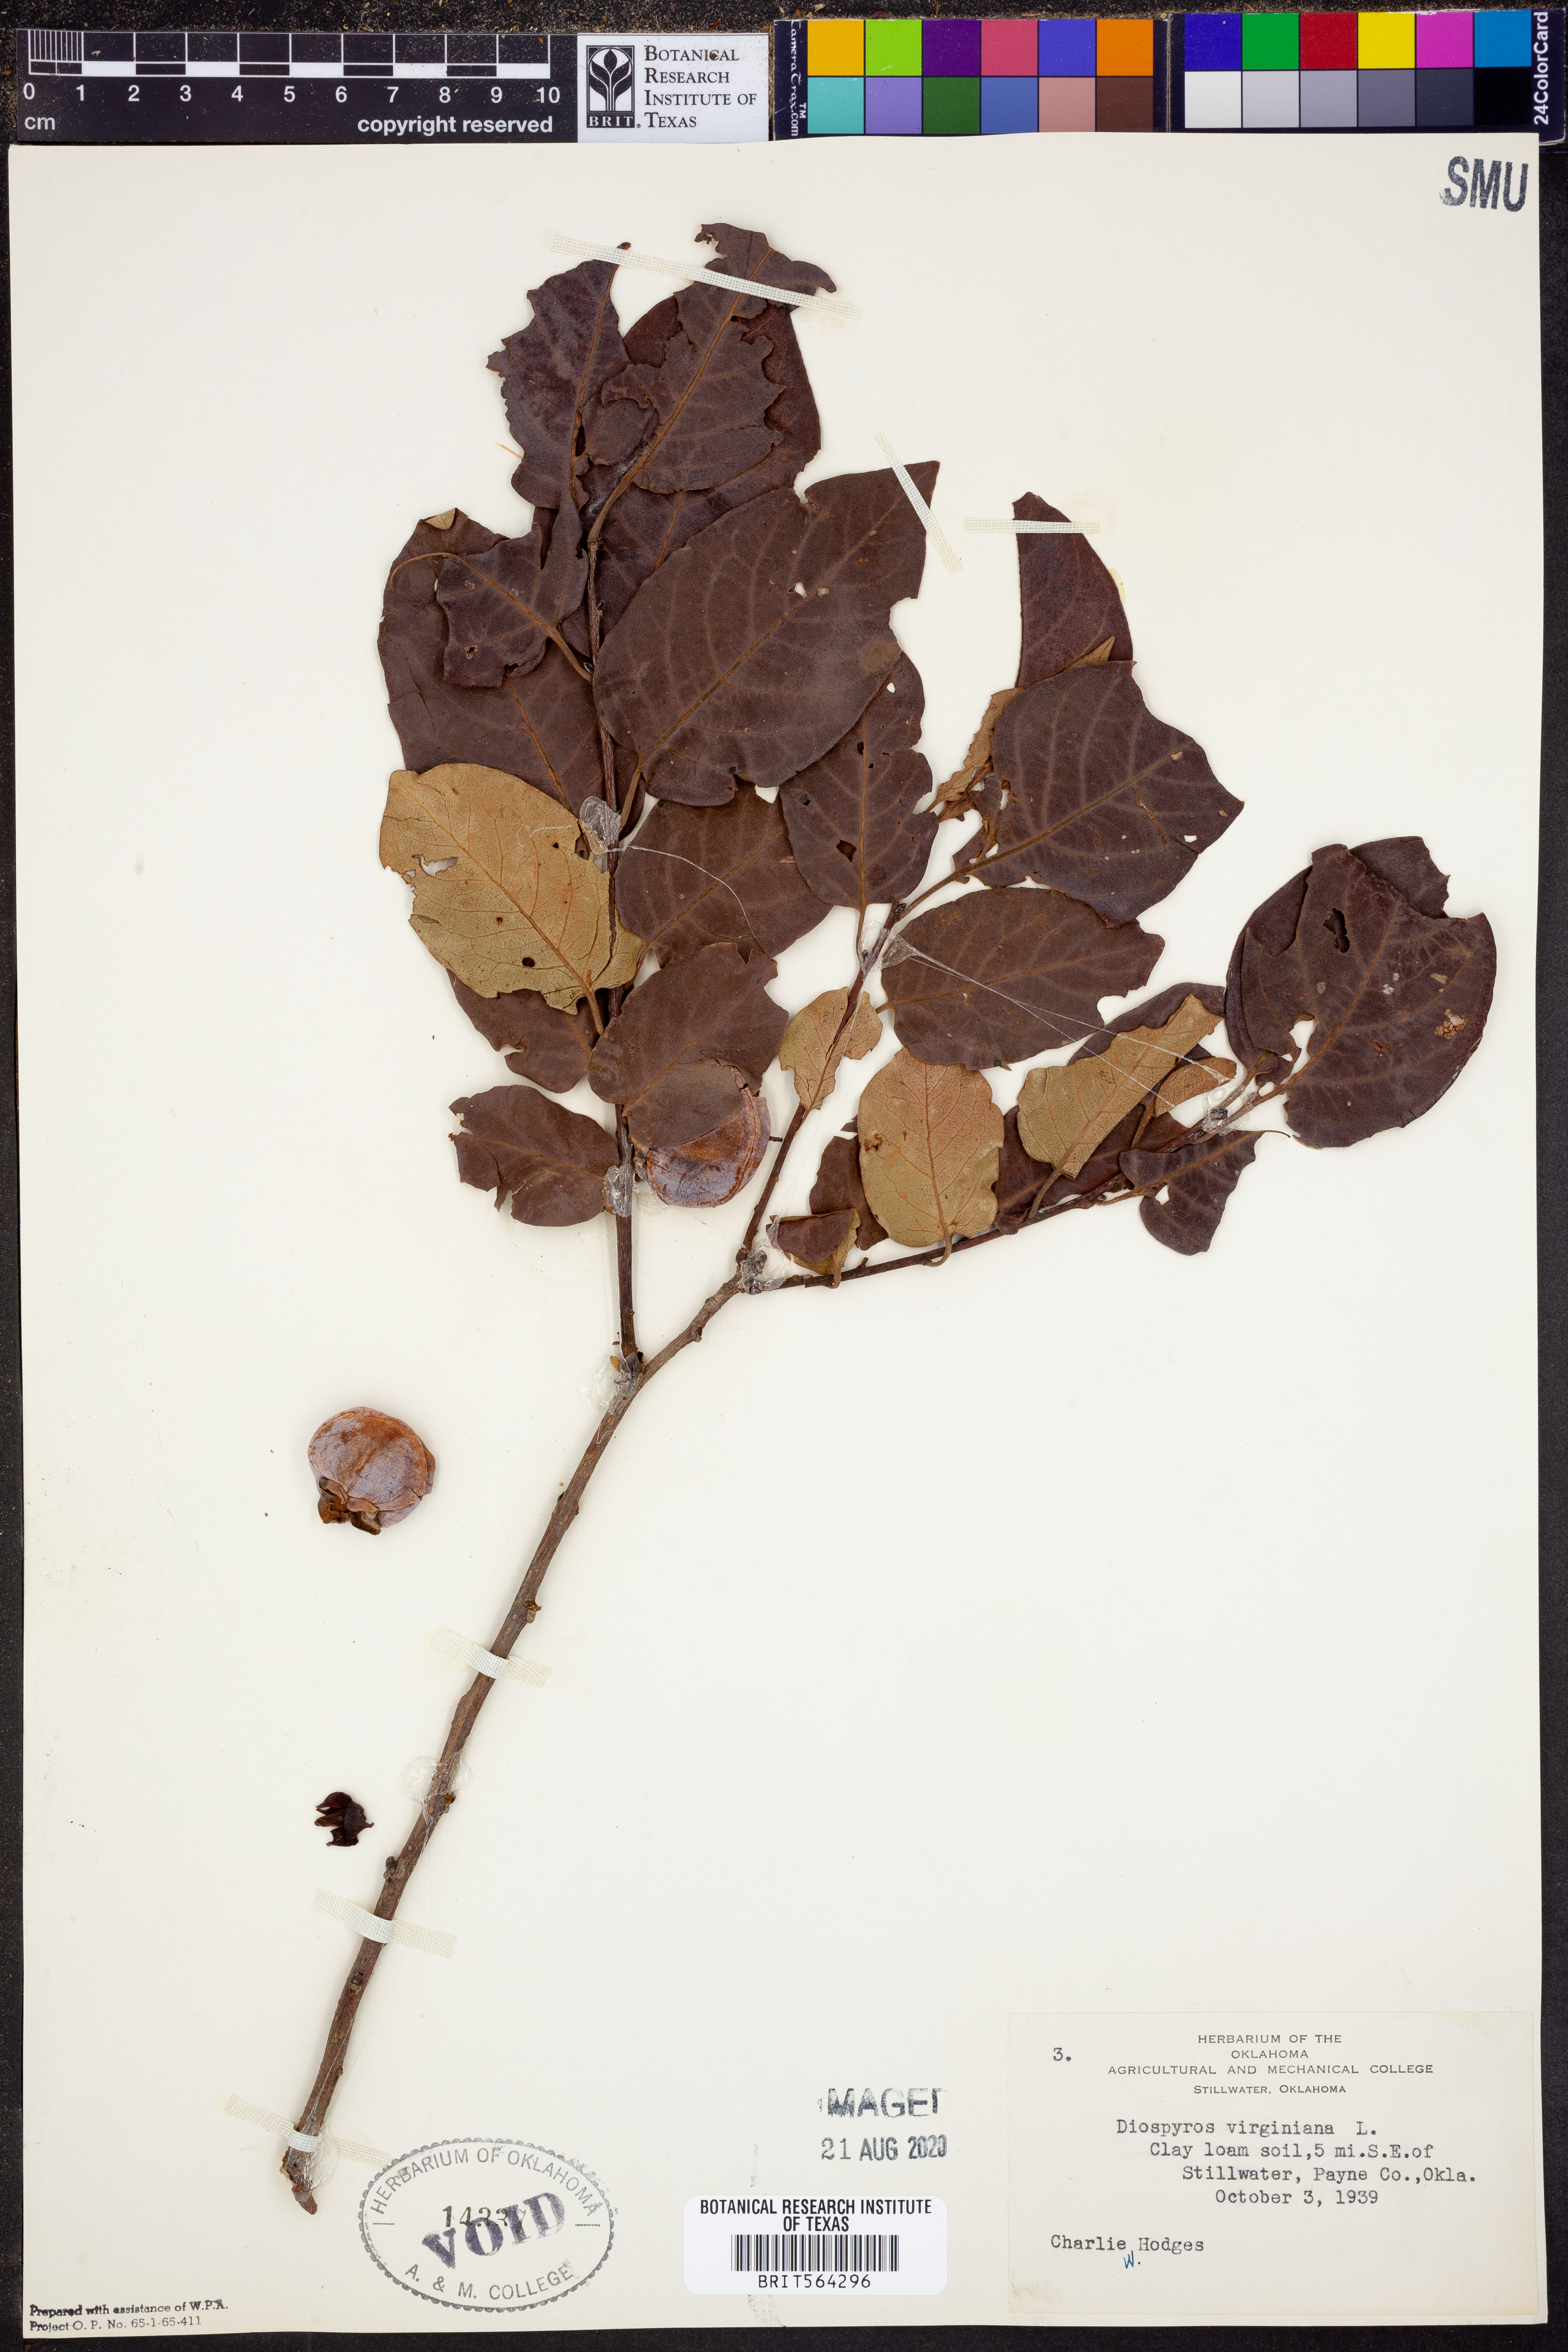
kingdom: Plantae
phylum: Tracheophyta
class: Magnoliopsida
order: Ericales
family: Ebenaceae
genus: Diospyros
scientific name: Diospyros virginiana
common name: Persimmon
